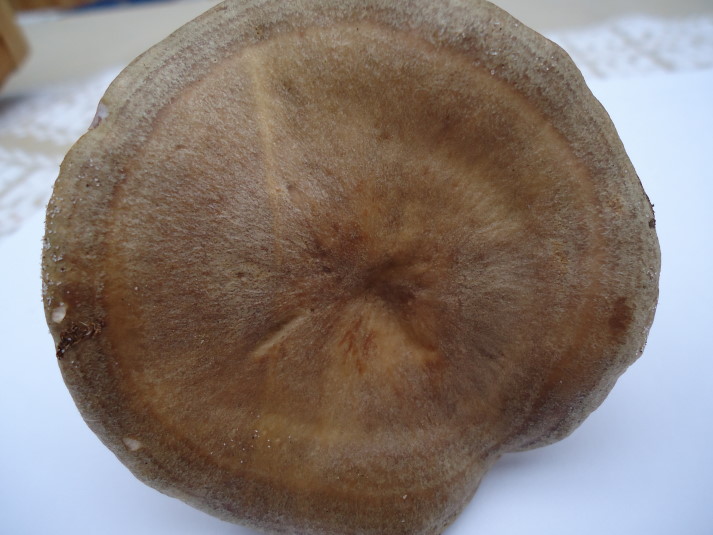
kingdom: Fungi
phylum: Basidiomycota
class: Agaricomycetes
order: Russulales
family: Russulaceae
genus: Lactarius
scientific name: Lactarius pyrogalus
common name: hassel-mælkehat
